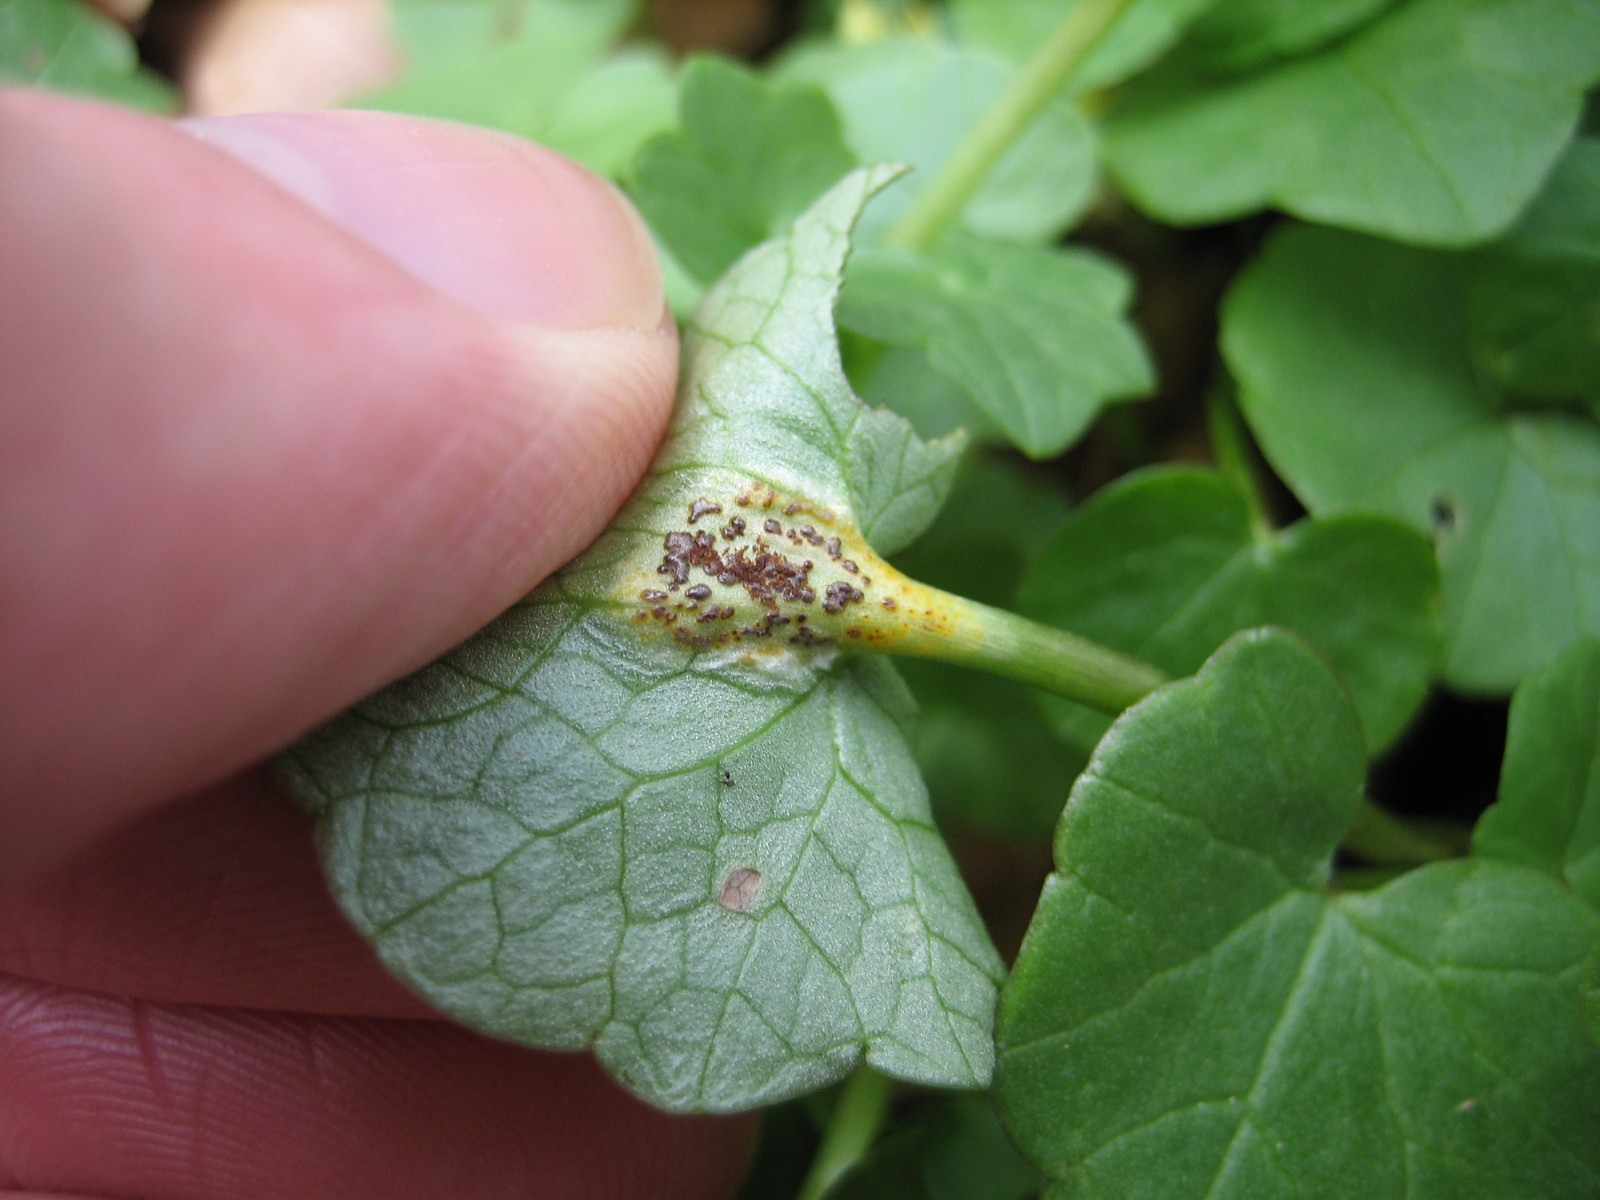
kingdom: Fungi
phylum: Basidiomycota
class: Pucciniomycetes
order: Pucciniales
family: Pucciniaceae
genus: Uromyces
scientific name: Uromyces ficariae
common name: vorterod-encellerust
